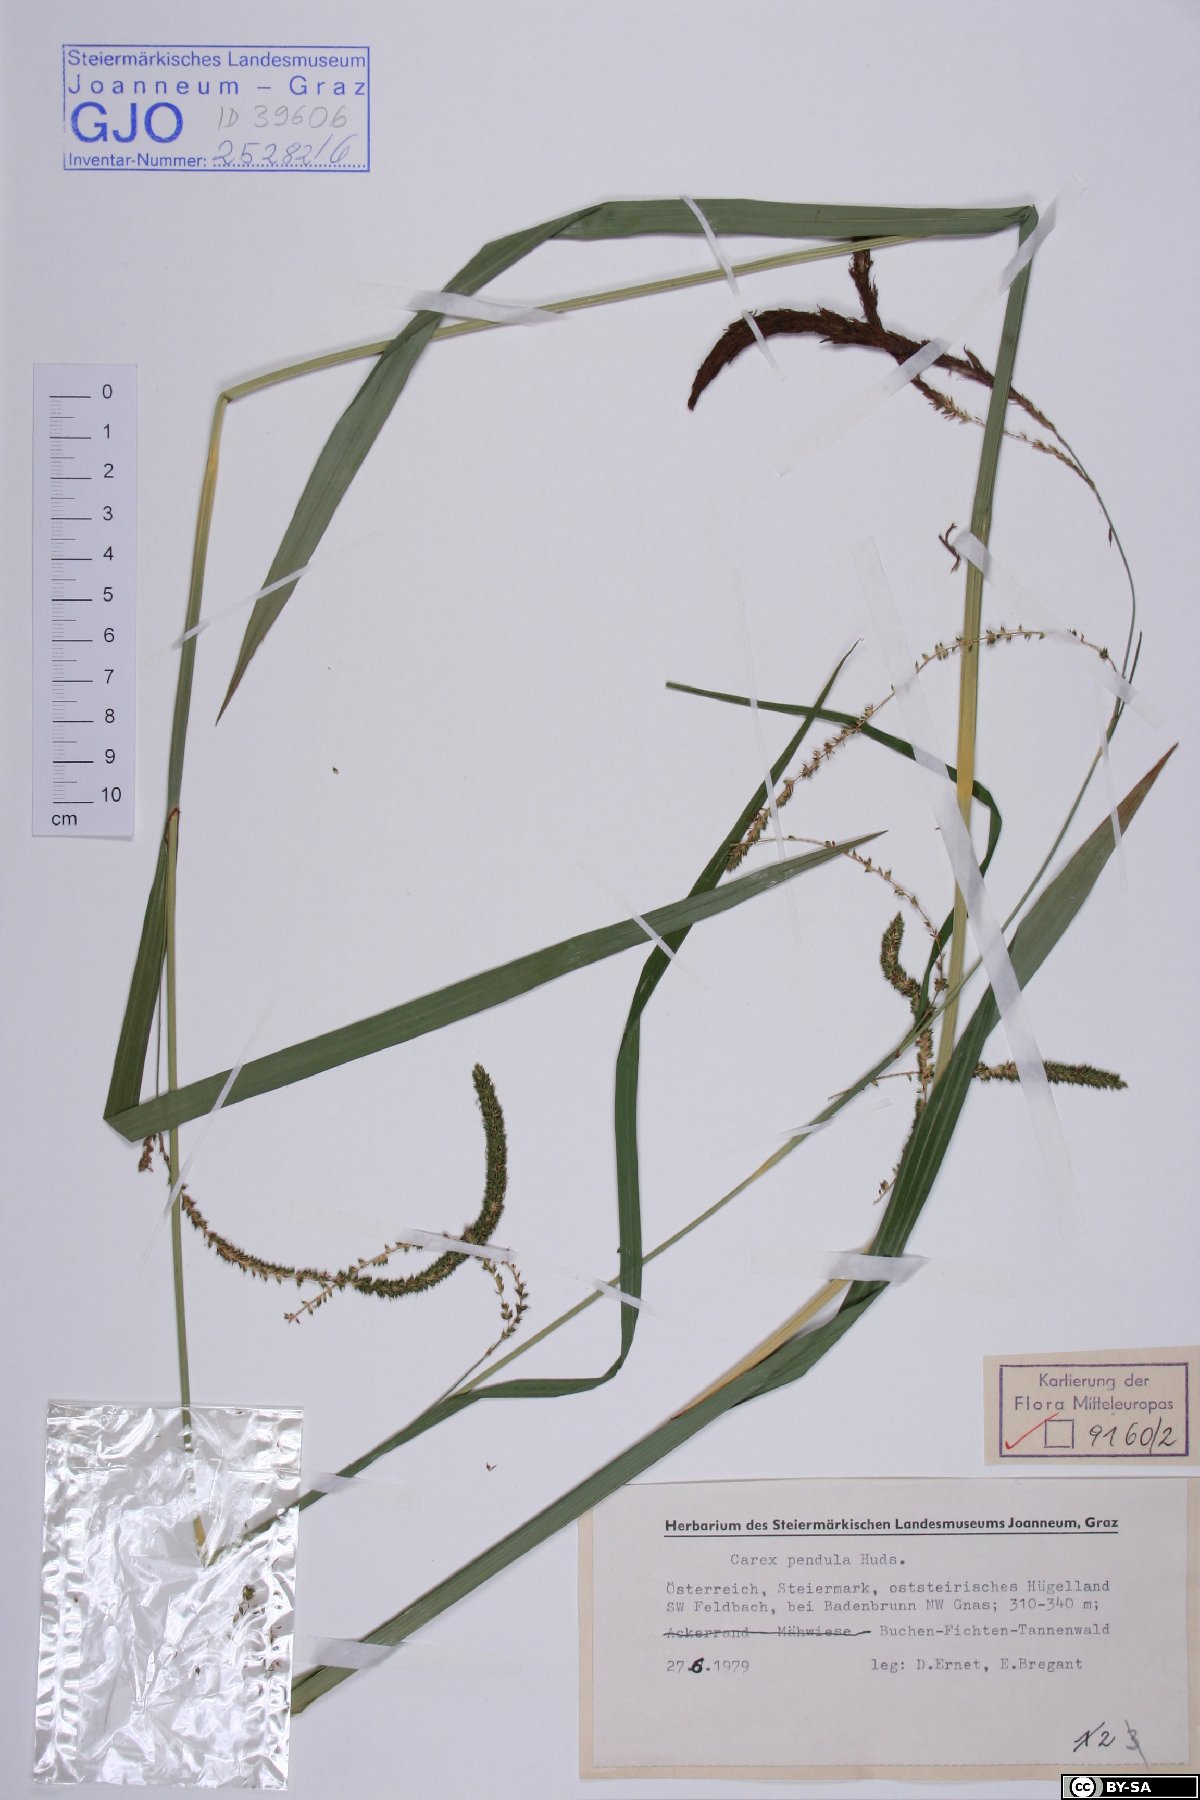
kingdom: Plantae
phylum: Tracheophyta
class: Liliopsida
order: Poales
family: Cyperaceae
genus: Carex
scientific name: Carex pendula
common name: Pendulous sedge
